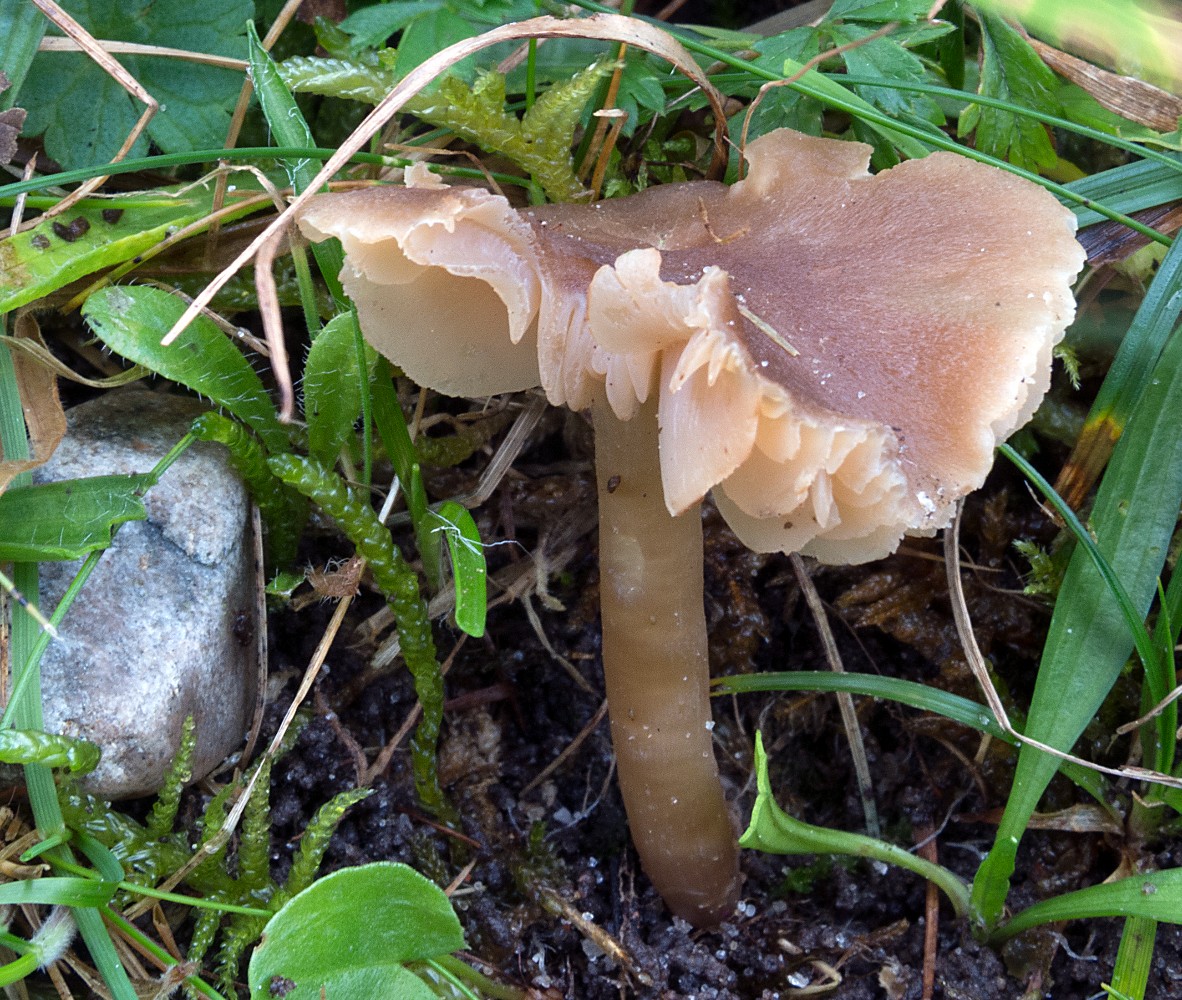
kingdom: Fungi
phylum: Basidiomycota
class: Agaricomycetes
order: Agaricales
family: Hygrophoraceae
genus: Neohygrocybe
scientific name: Neohygrocybe nitrata
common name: stinkende vokshat
